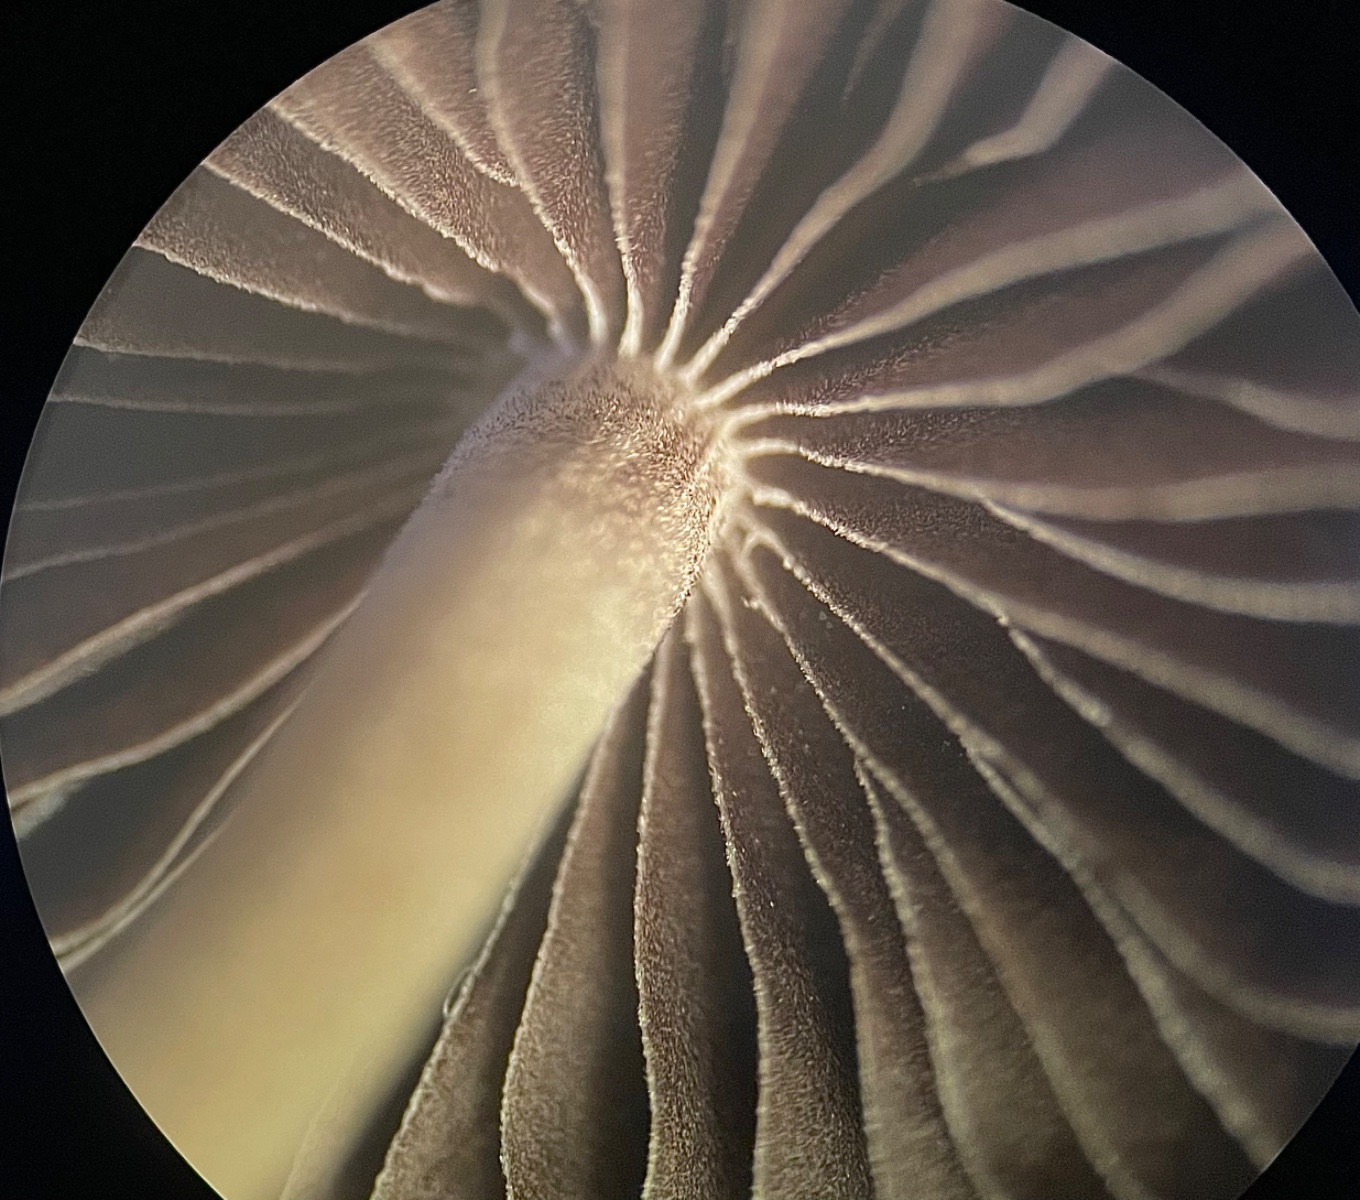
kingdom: Fungi
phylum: Basidiomycota
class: Agaricomycetes
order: Agaricales
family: Psathyrellaceae
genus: Britzelmayria
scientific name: Britzelmayria supernula
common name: stinkende mørkhat
